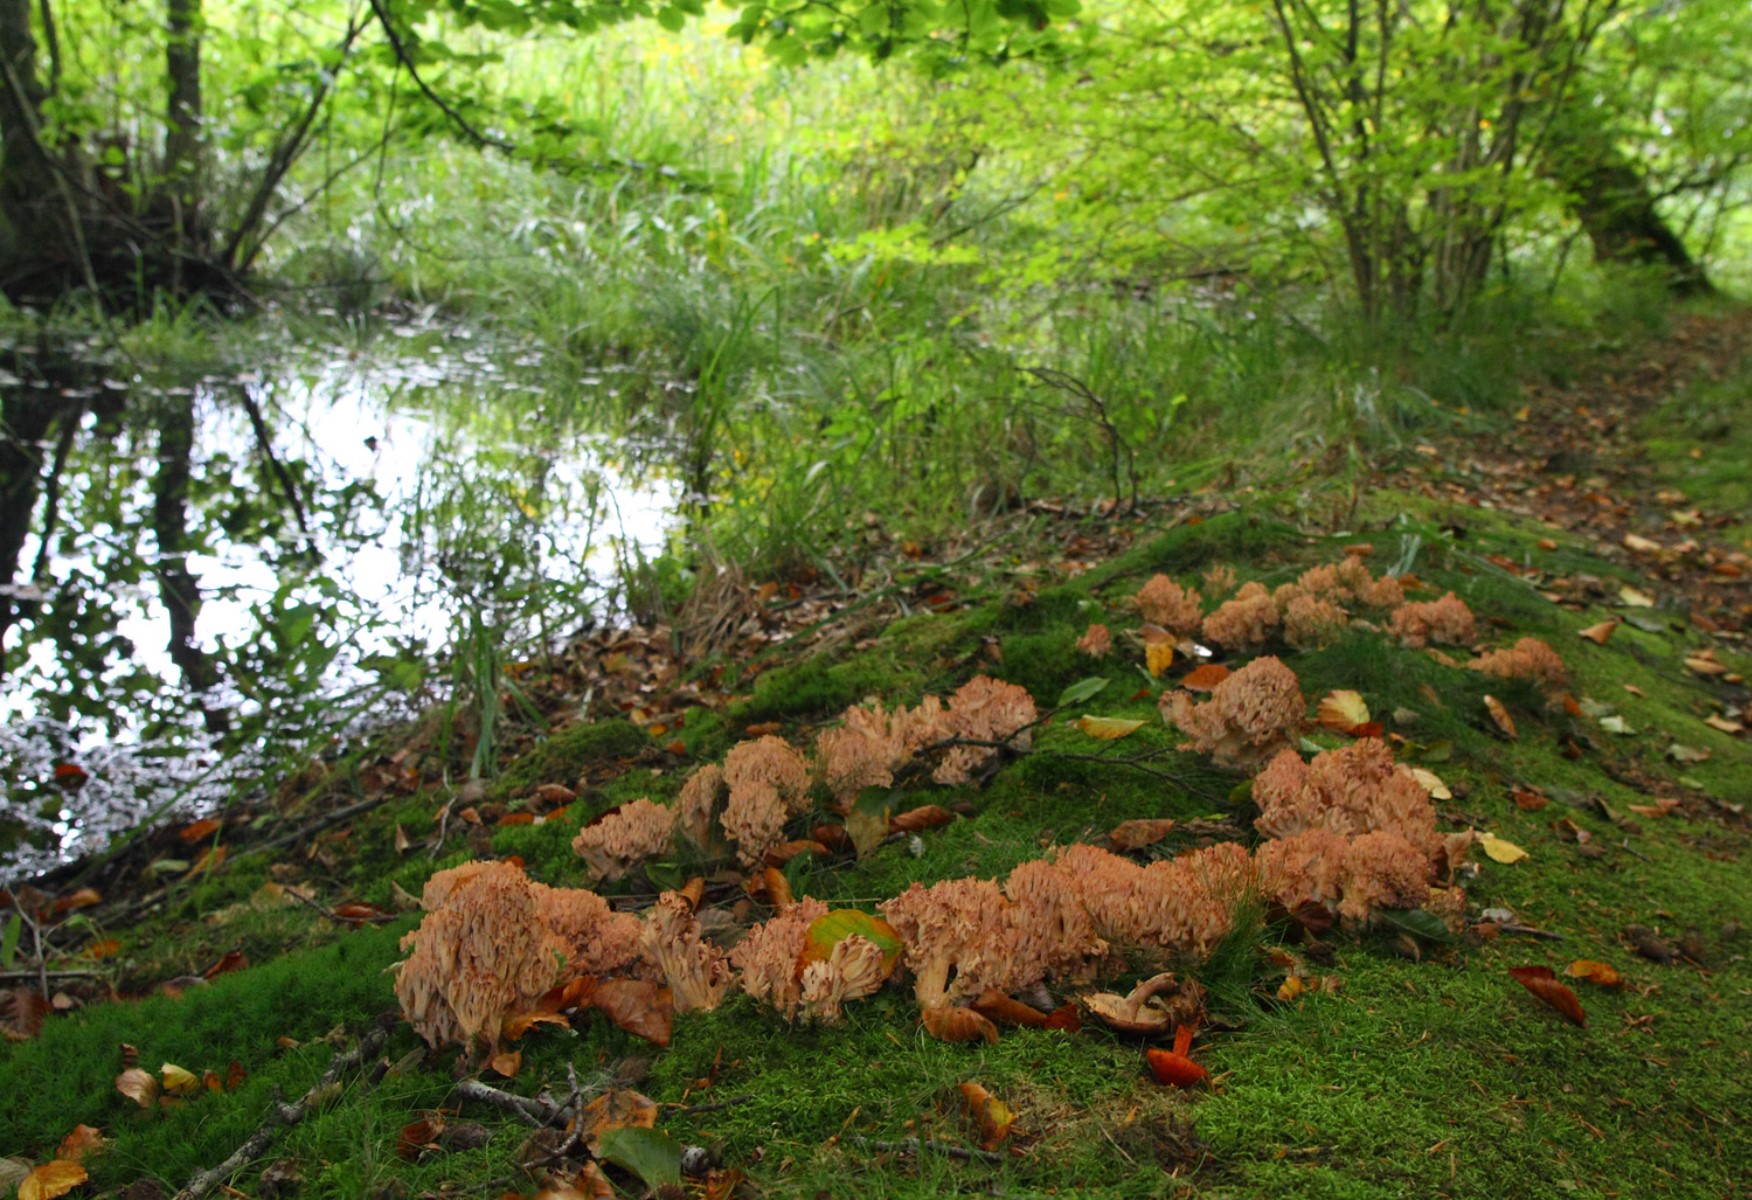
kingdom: Fungi
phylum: Basidiomycota
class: Agaricomycetes
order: Gomphales
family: Gomphaceae
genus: Ramaria
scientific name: Ramaria botrytis
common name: drue-koralsvamp
